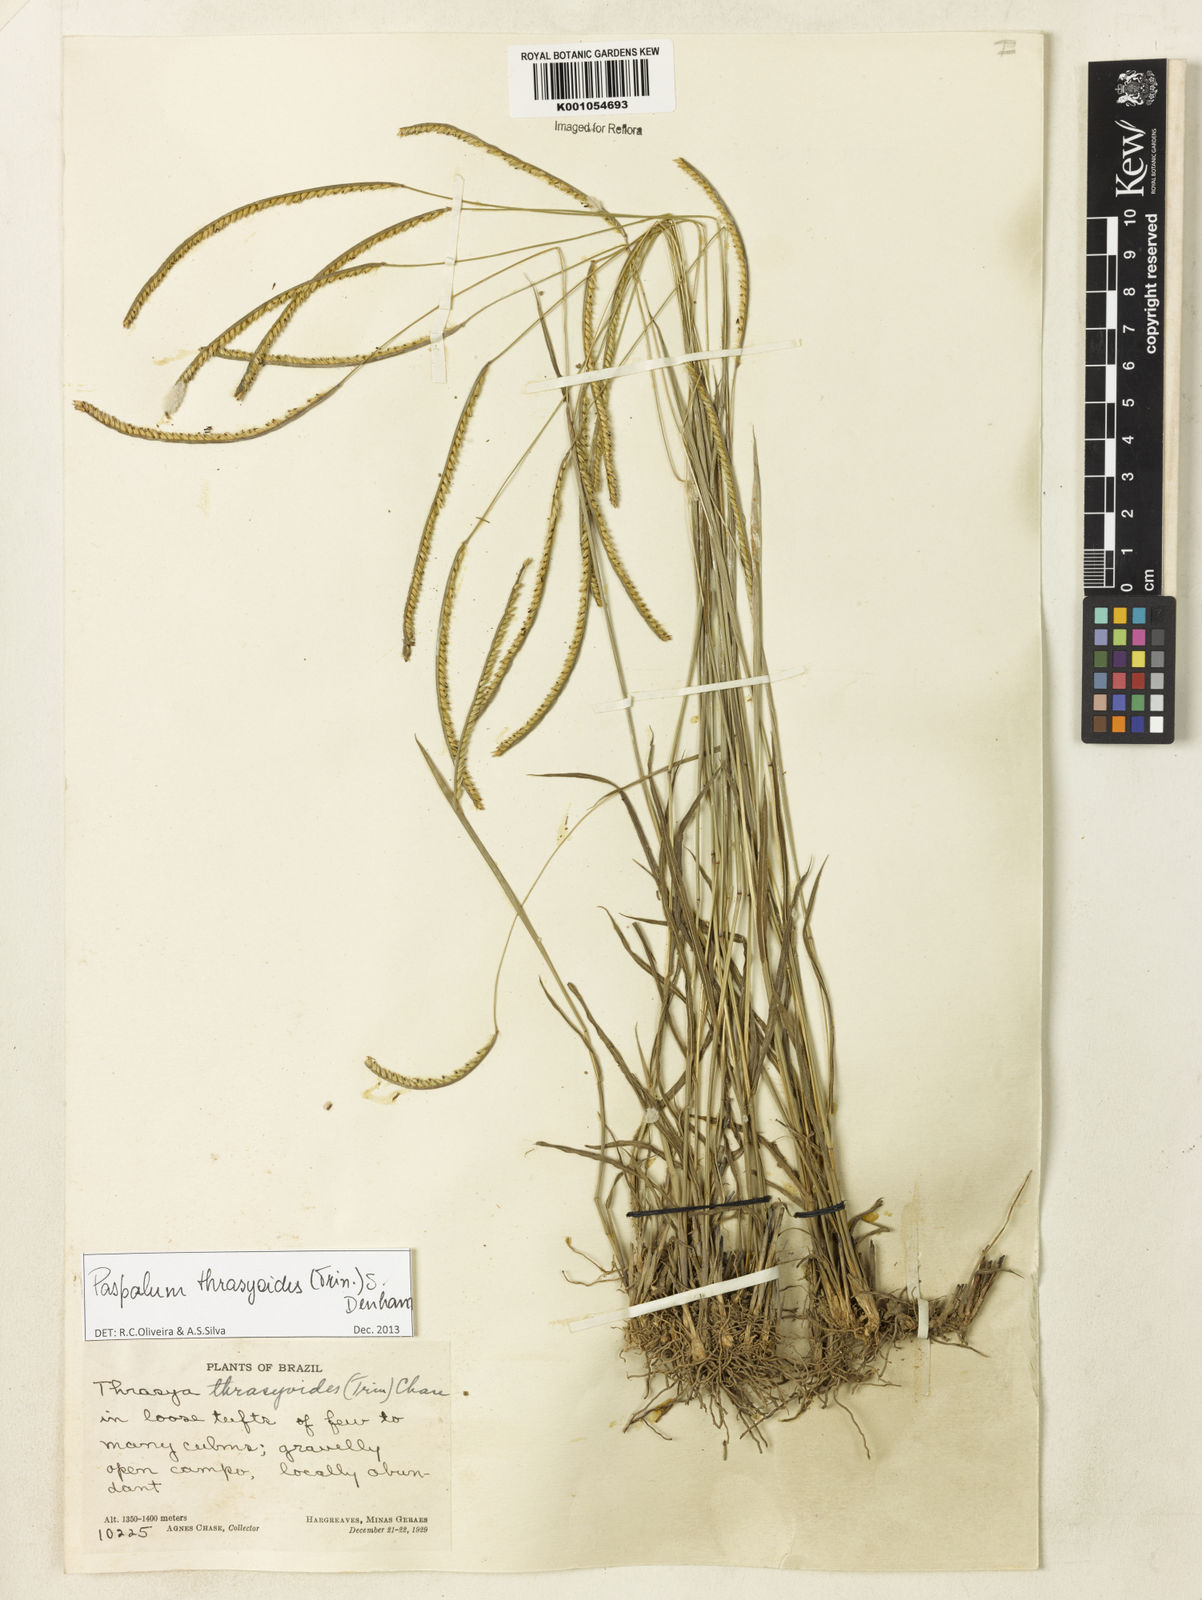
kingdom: Plantae
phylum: Tracheophyta
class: Liliopsida
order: Poales
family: Poaceae
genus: Paspalum
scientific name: Paspalum thrasyoides
